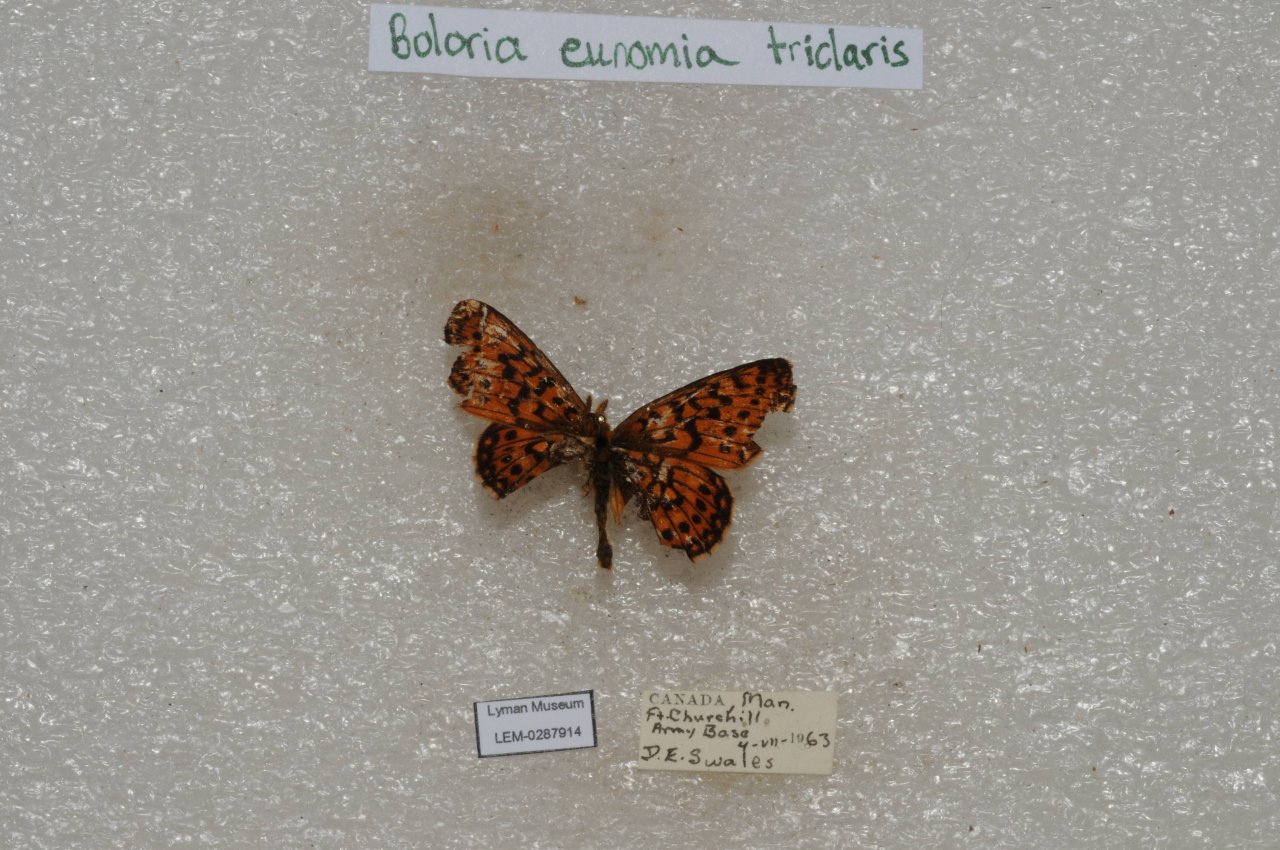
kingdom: Animalia
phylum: Arthropoda
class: Insecta
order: Lepidoptera
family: Nymphalidae
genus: Boloria
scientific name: Boloria eunomia
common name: Bog Fritillary
